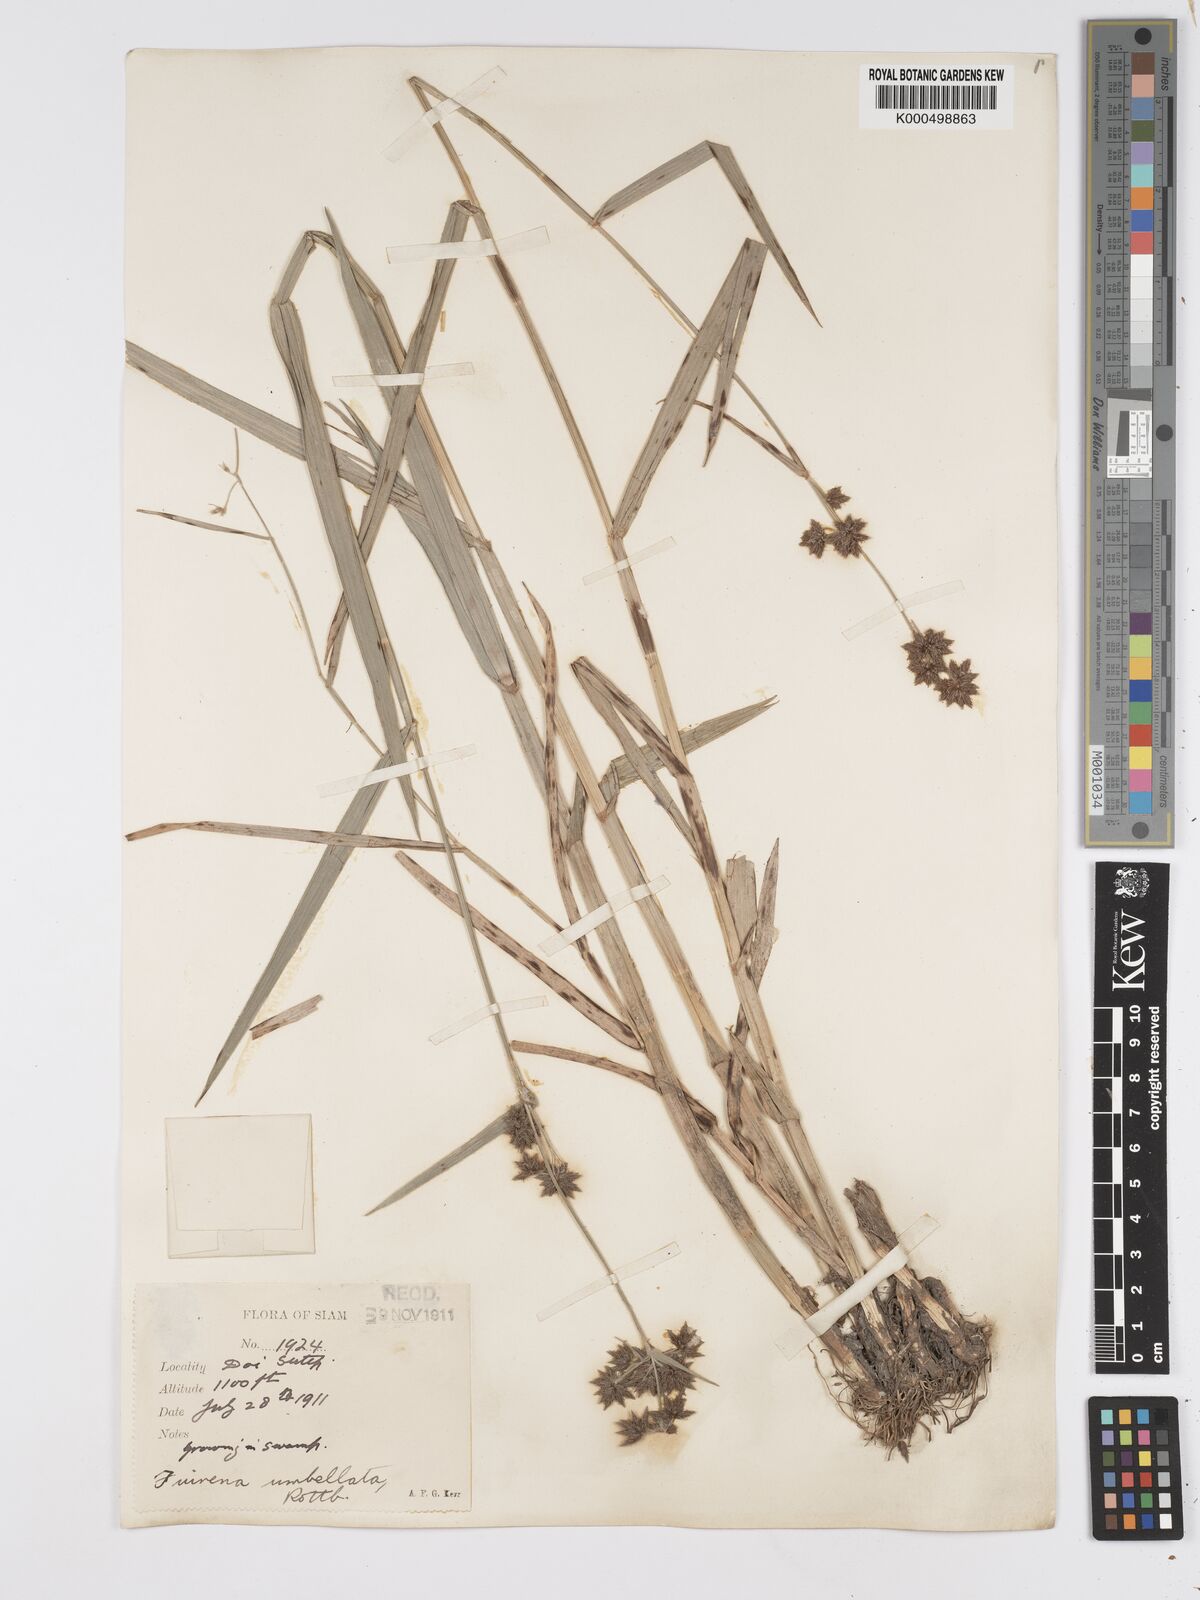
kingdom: Plantae
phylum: Tracheophyta
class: Liliopsida
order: Poales
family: Cyperaceae
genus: Fuirena
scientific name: Fuirena umbellata
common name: Yefen
